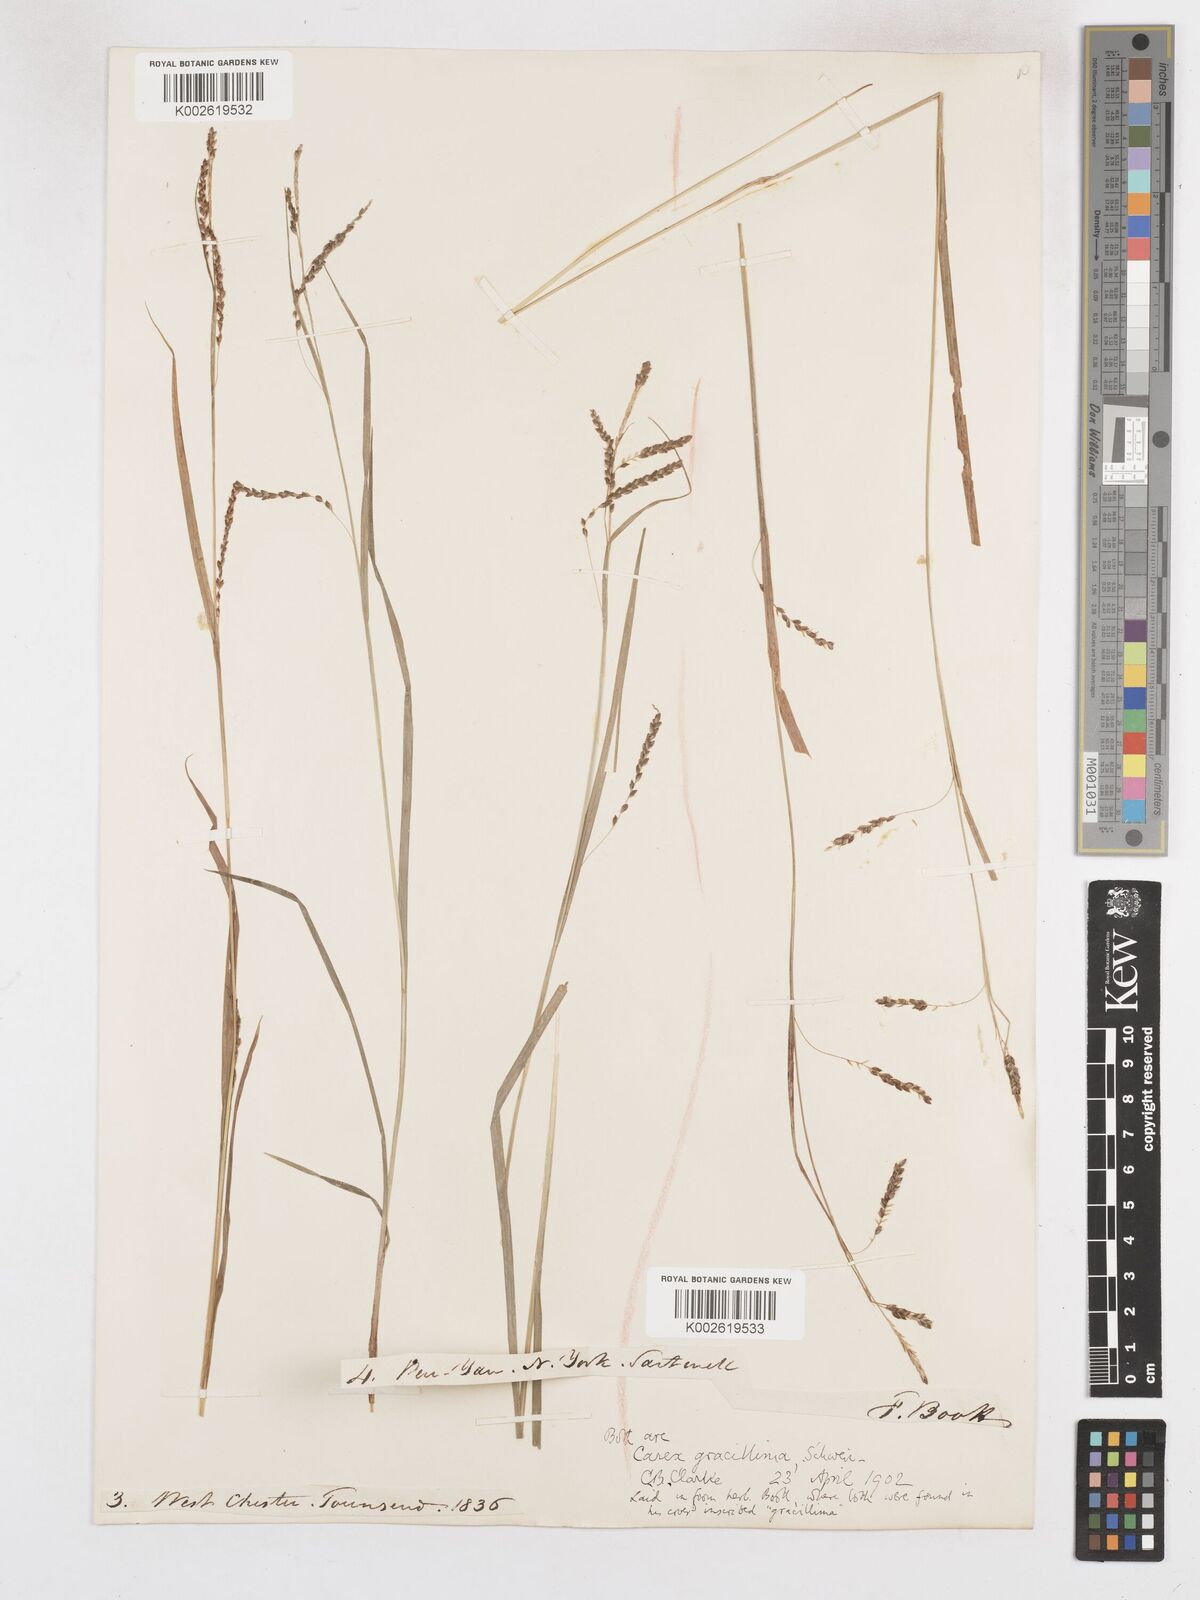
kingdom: Plantae
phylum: Tracheophyta
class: Liliopsida
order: Poales
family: Cyperaceae
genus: Carex
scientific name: Carex gracillima
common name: Graceful sedge
